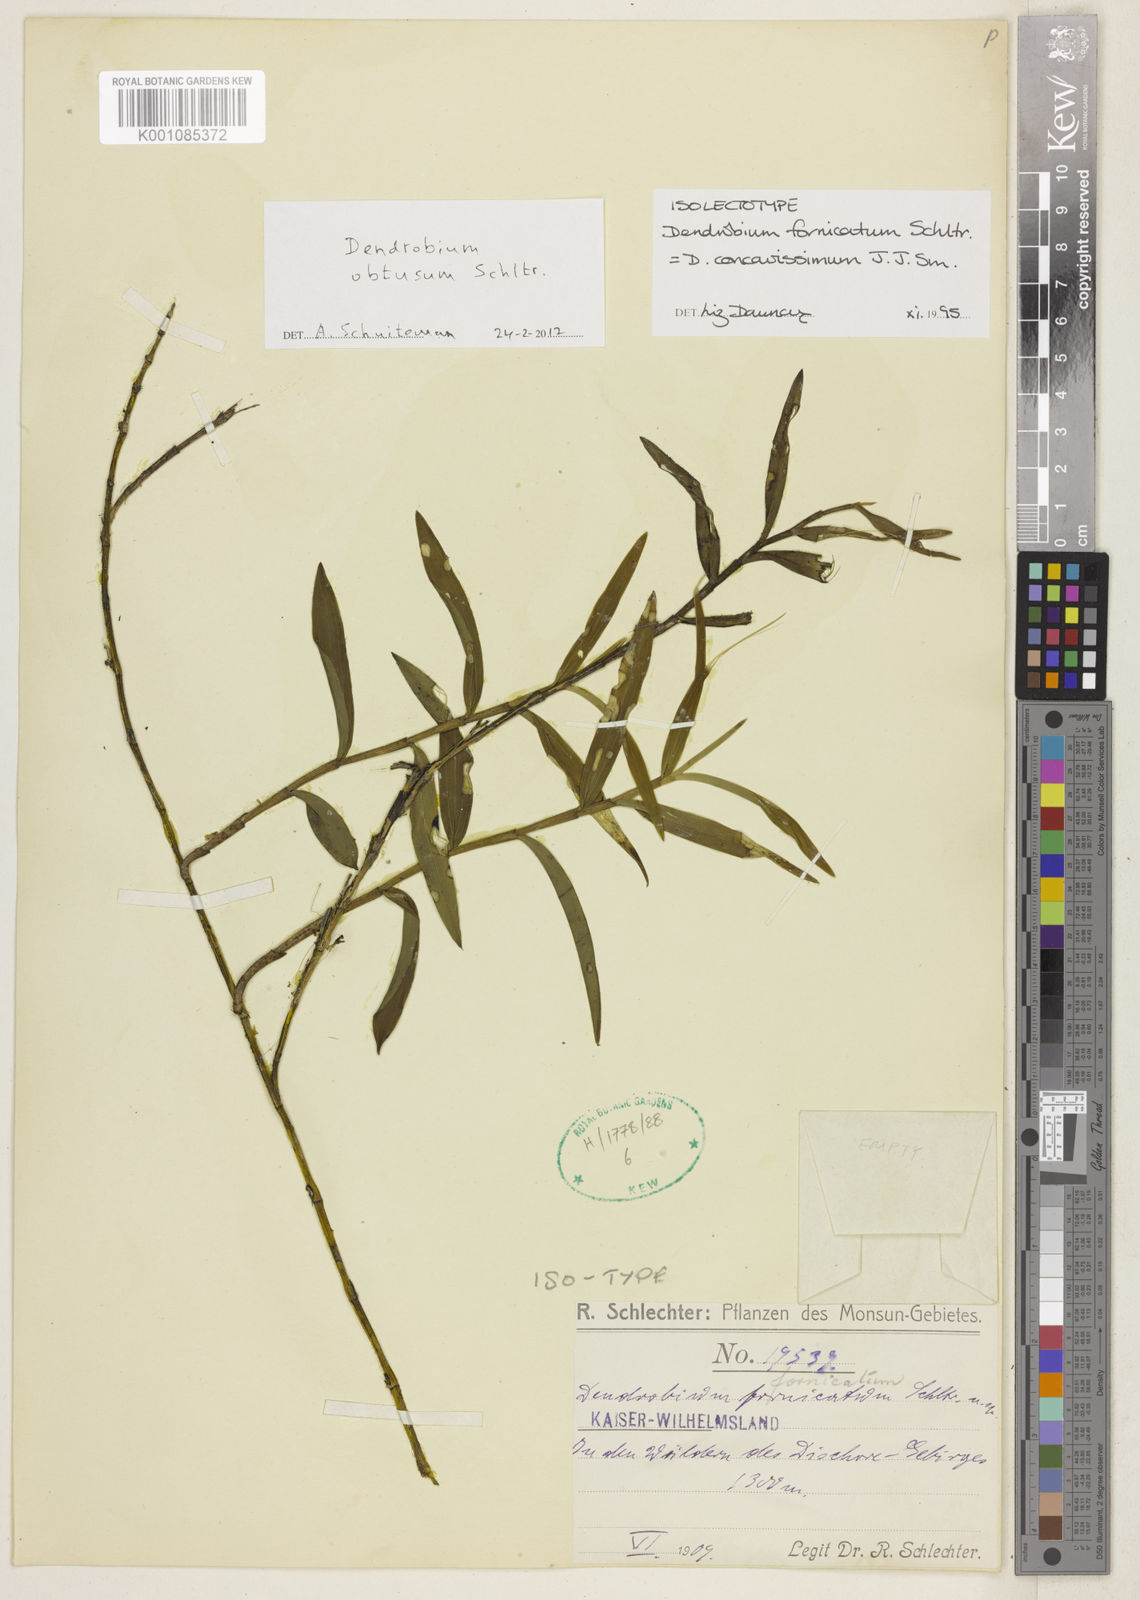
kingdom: Plantae
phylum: Tracheophyta
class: Liliopsida
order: Asparagales
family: Orchidaceae
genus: Dendrobium
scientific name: Dendrobium obtusum
